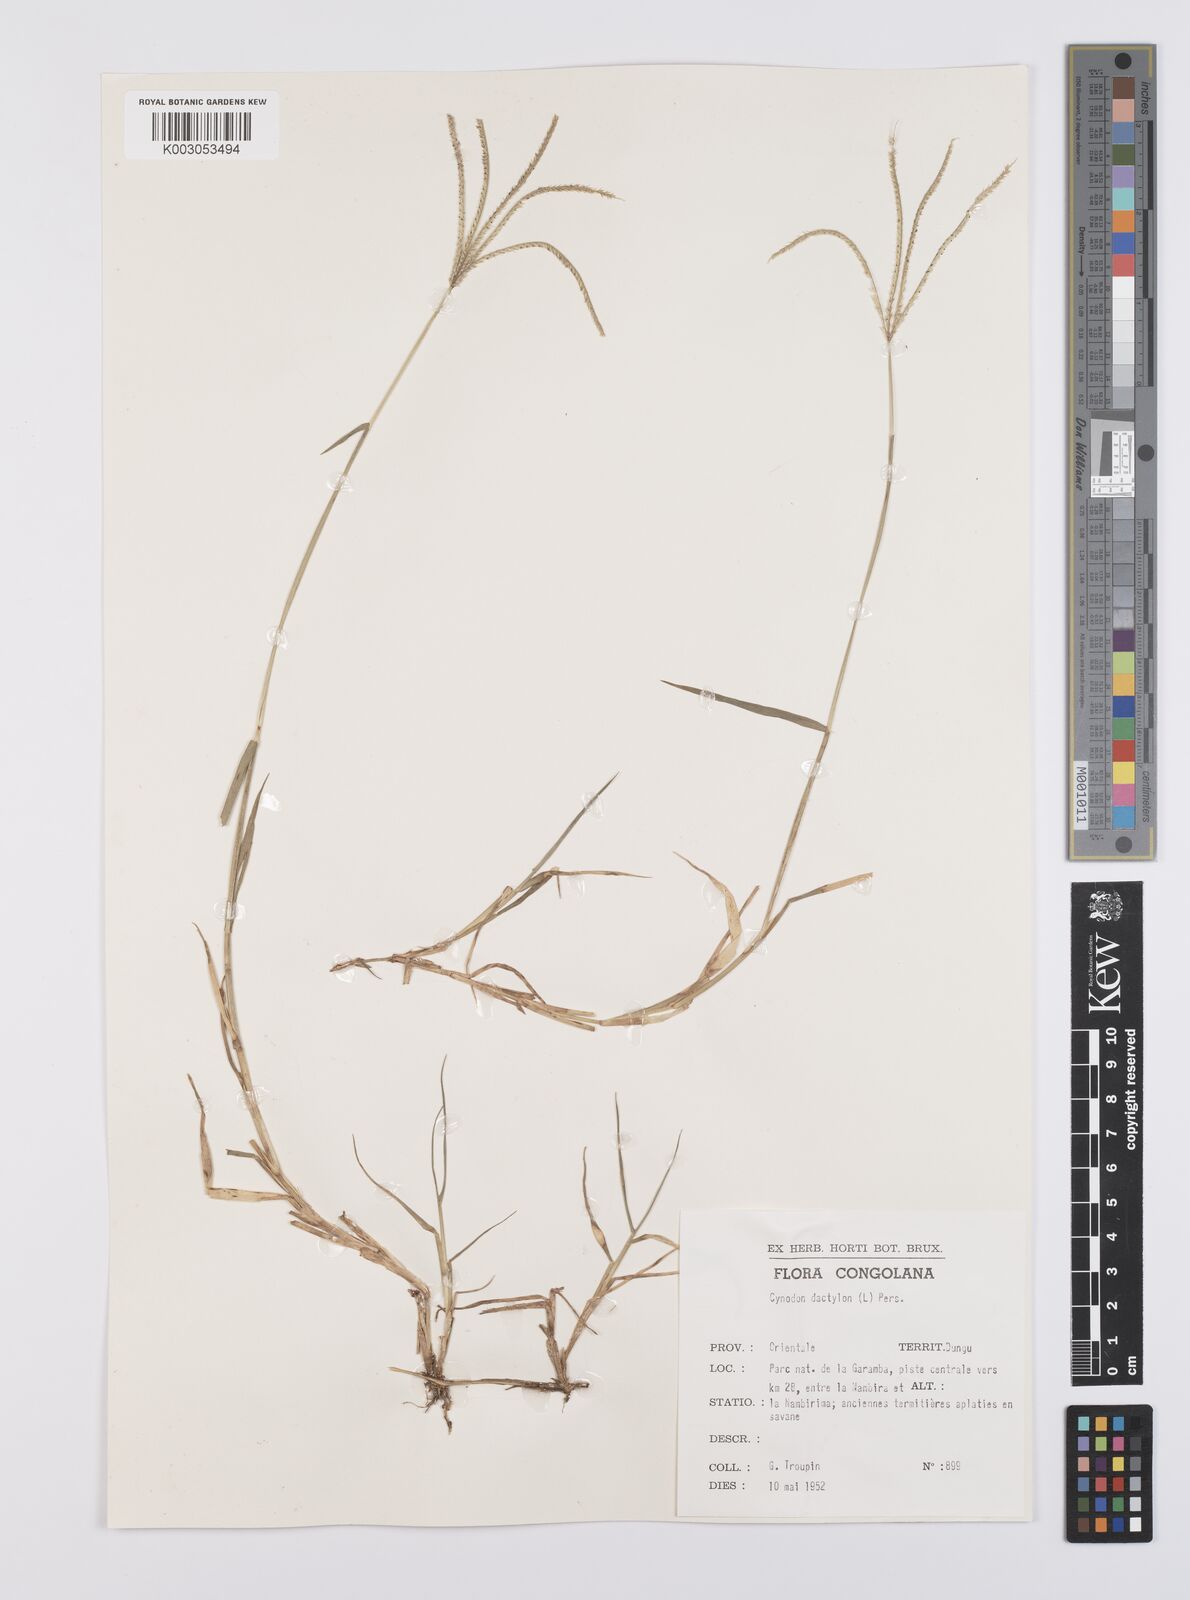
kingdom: Plantae
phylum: Tracheophyta
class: Liliopsida
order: Poales
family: Poaceae
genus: Cynodon
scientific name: Cynodon nlemfuensis
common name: African bermudagrass
